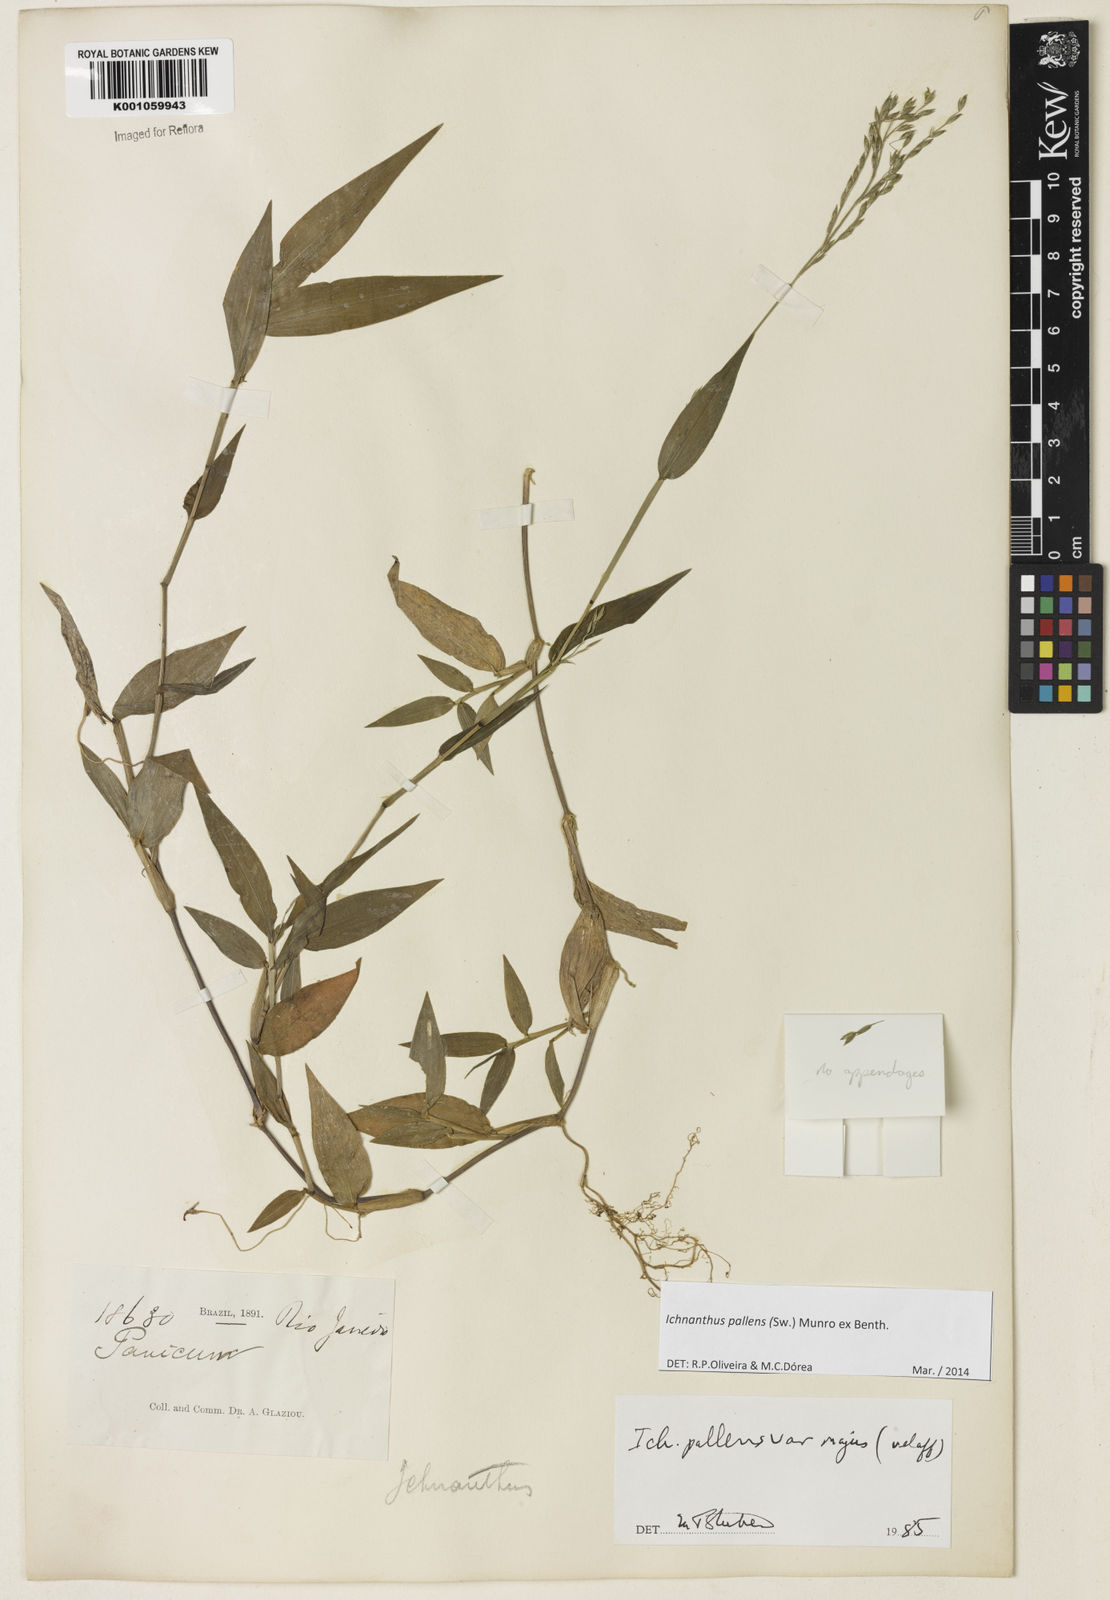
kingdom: Plantae
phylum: Tracheophyta
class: Liliopsida
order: Poales
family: Poaceae
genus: Ichnanthus
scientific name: Ichnanthus pallens
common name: Water grass
